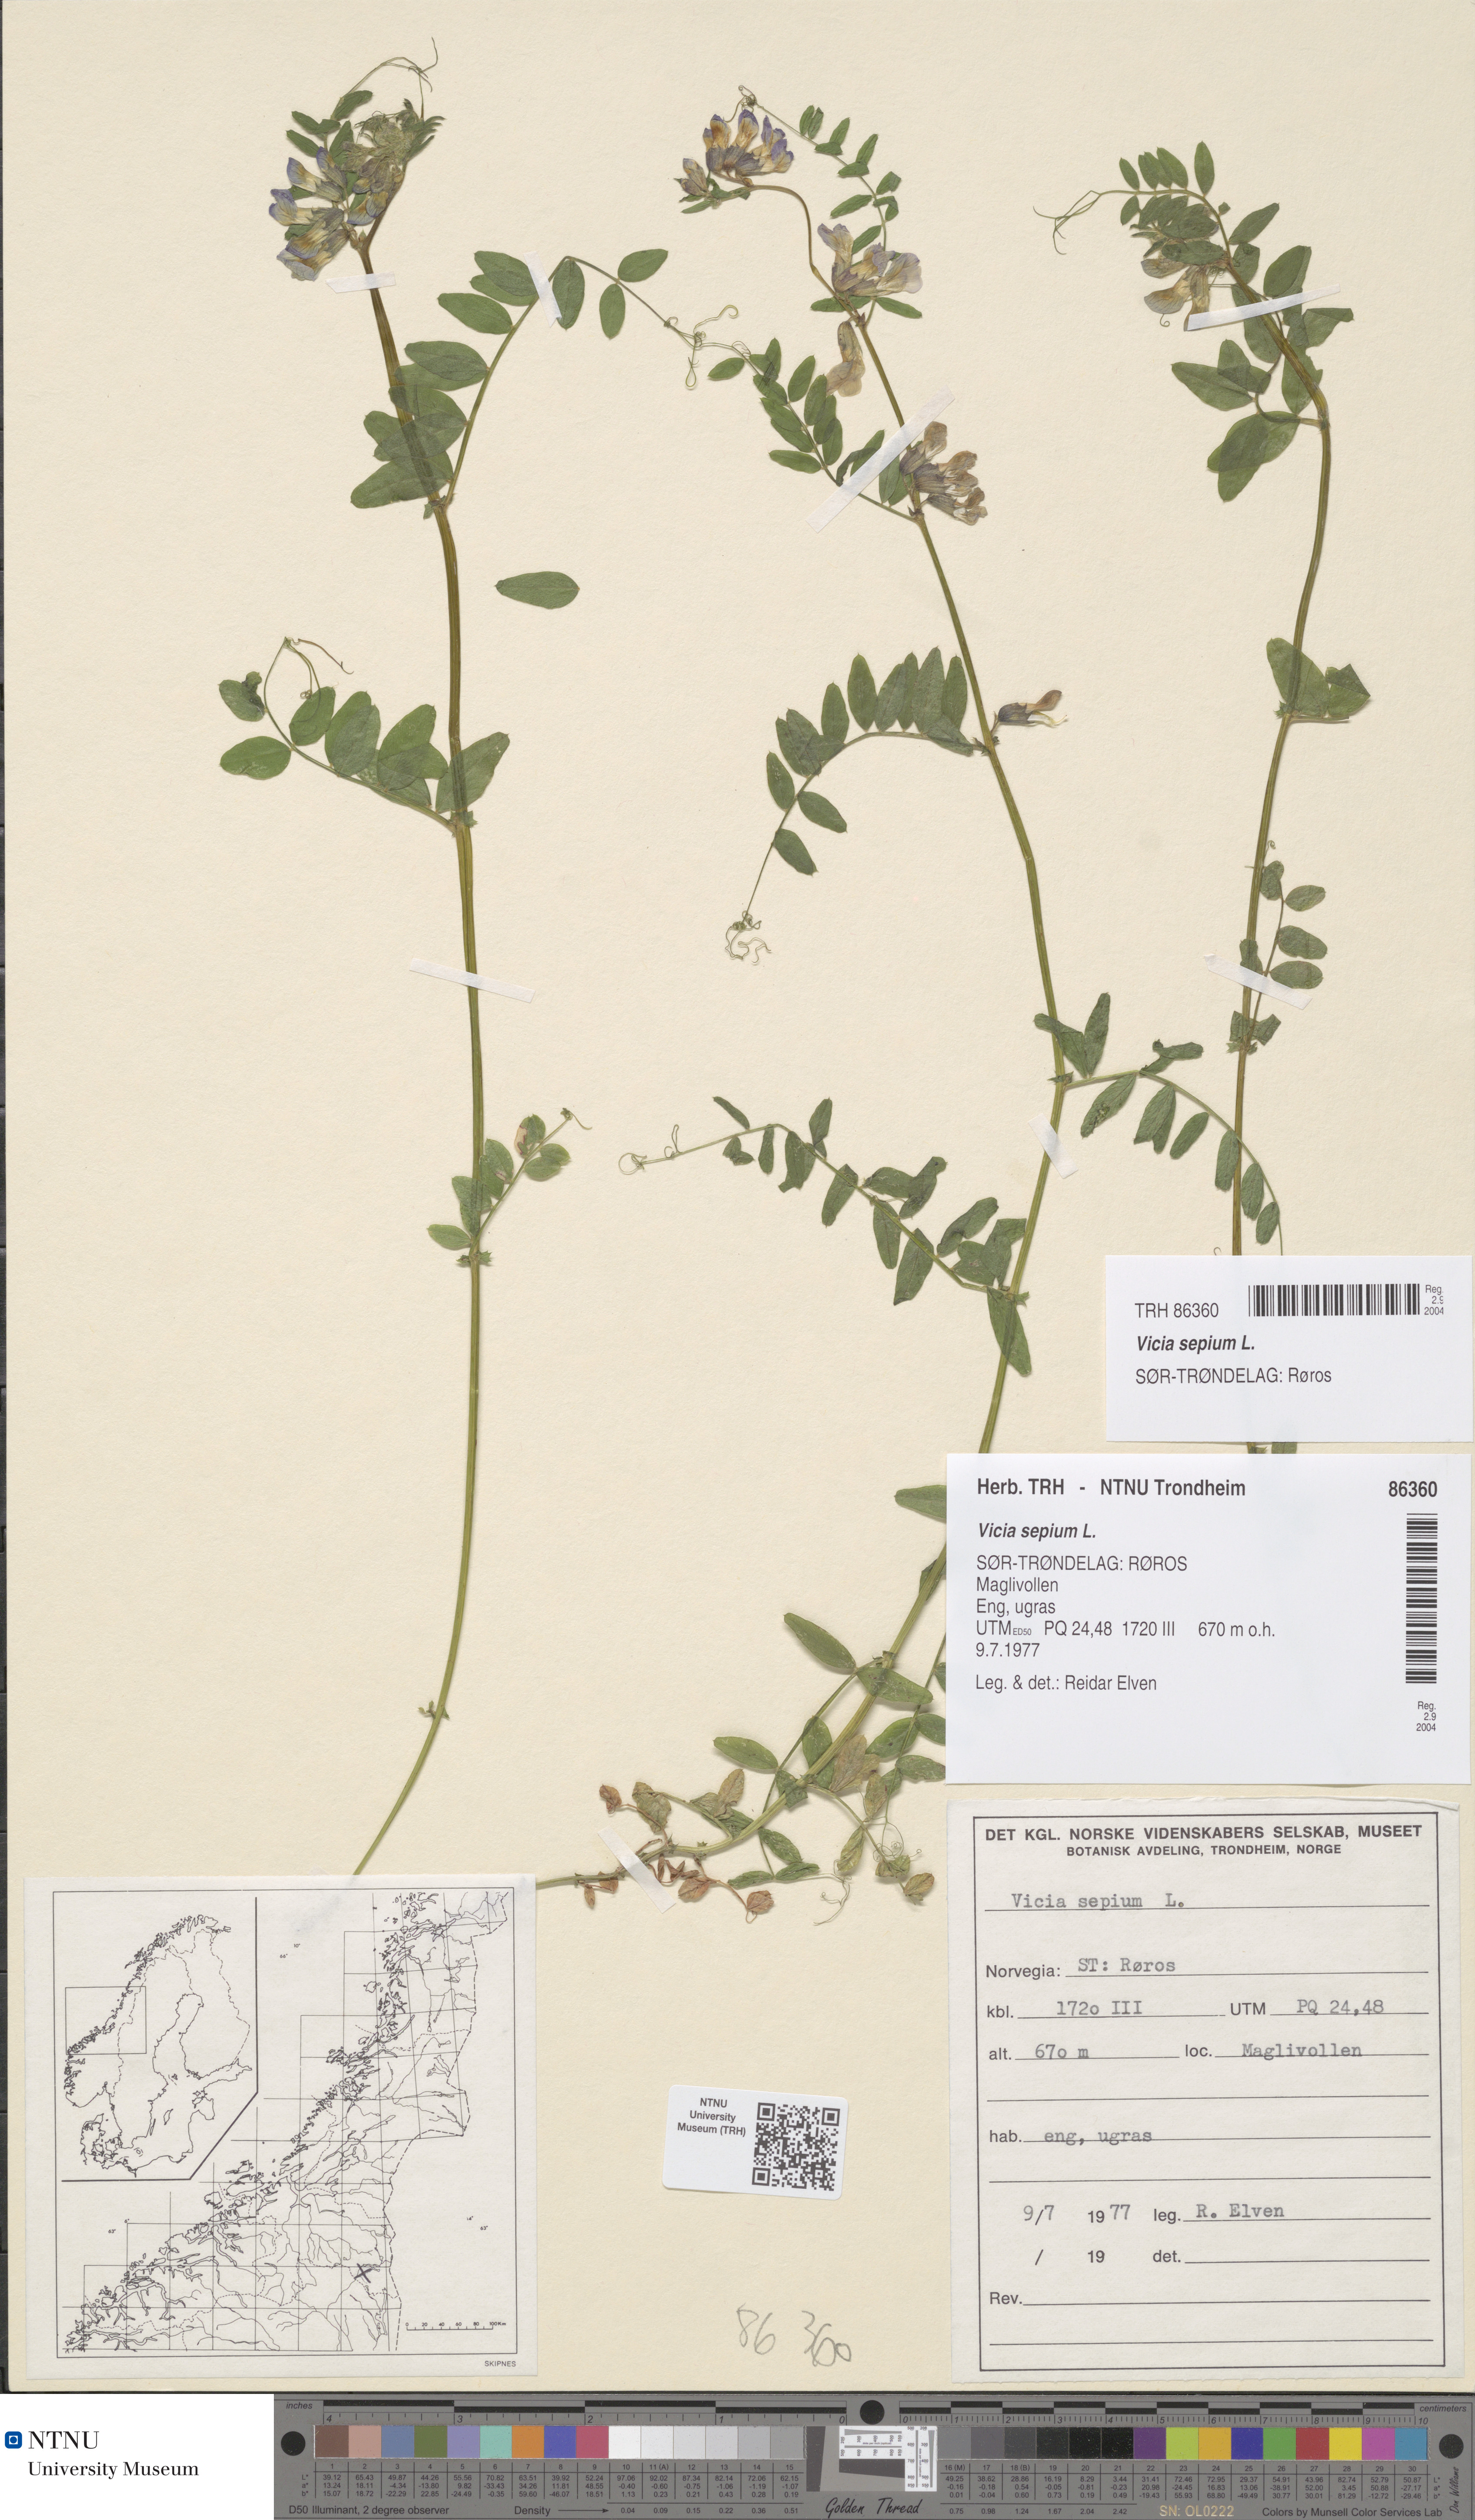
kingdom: Plantae
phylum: Tracheophyta
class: Magnoliopsida
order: Fabales
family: Fabaceae
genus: Vicia
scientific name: Vicia sepium
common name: Bush vetch
